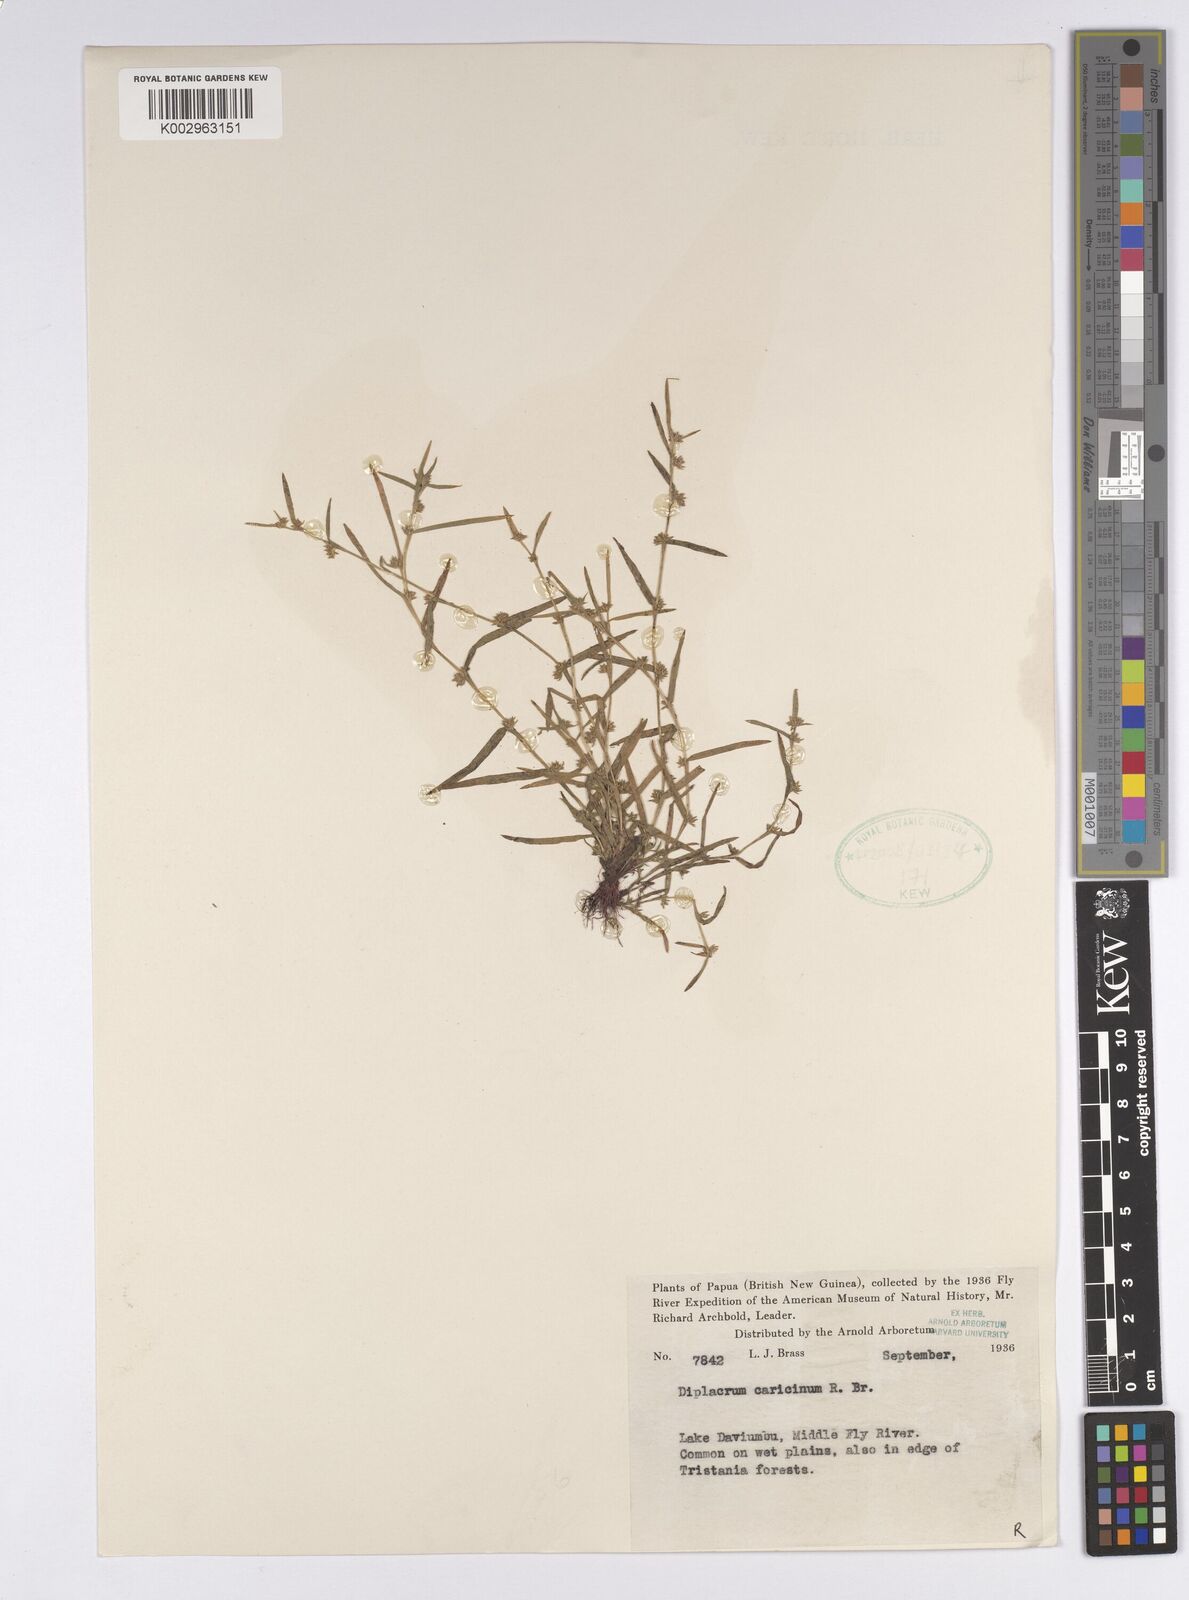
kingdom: Plantae
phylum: Tracheophyta
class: Liliopsida
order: Poales
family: Cyperaceae
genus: Diplacrum
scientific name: Diplacrum caricinum
